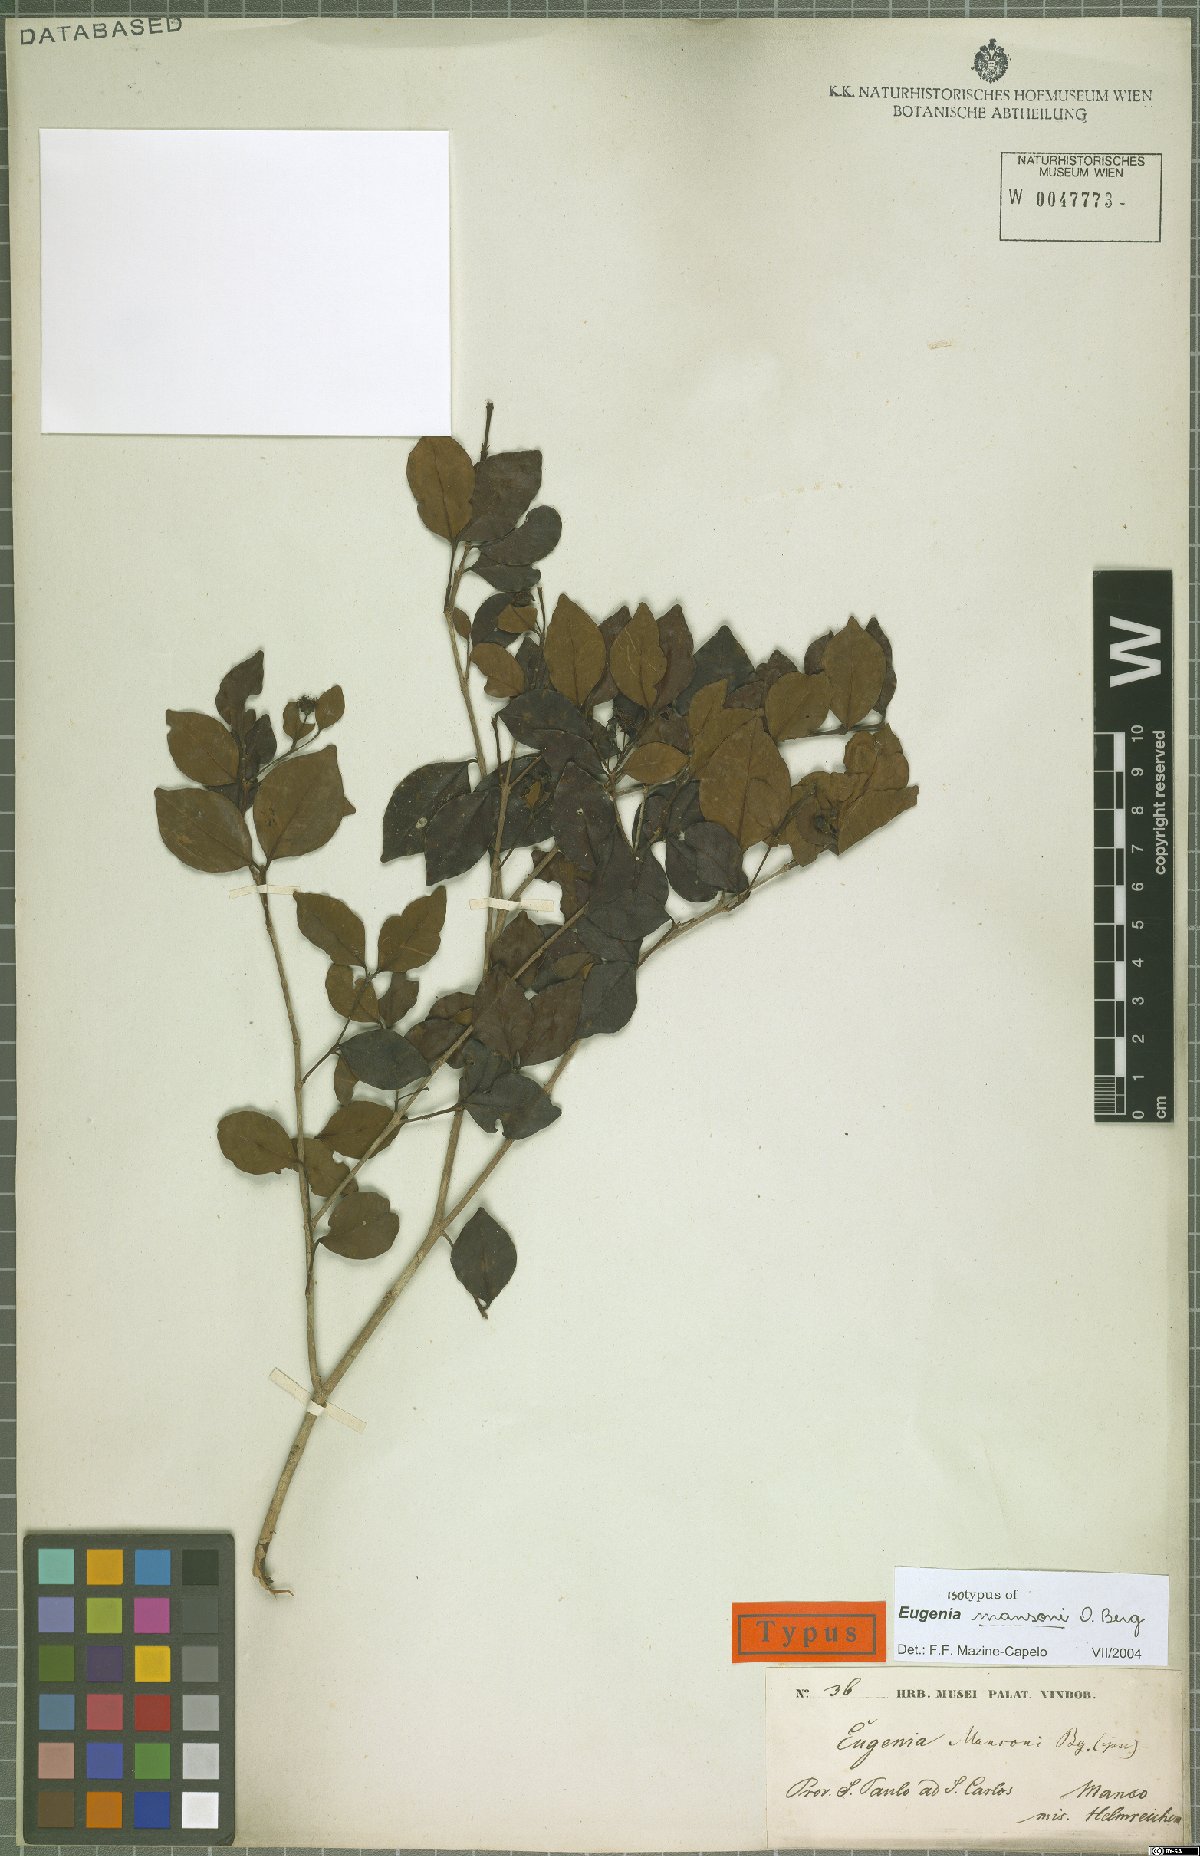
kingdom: Plantae
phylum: Tracheophyta
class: Magnoliopsida
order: Myrtales
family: Myrtaceae
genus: Eugenia
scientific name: Eugenia mansoi
